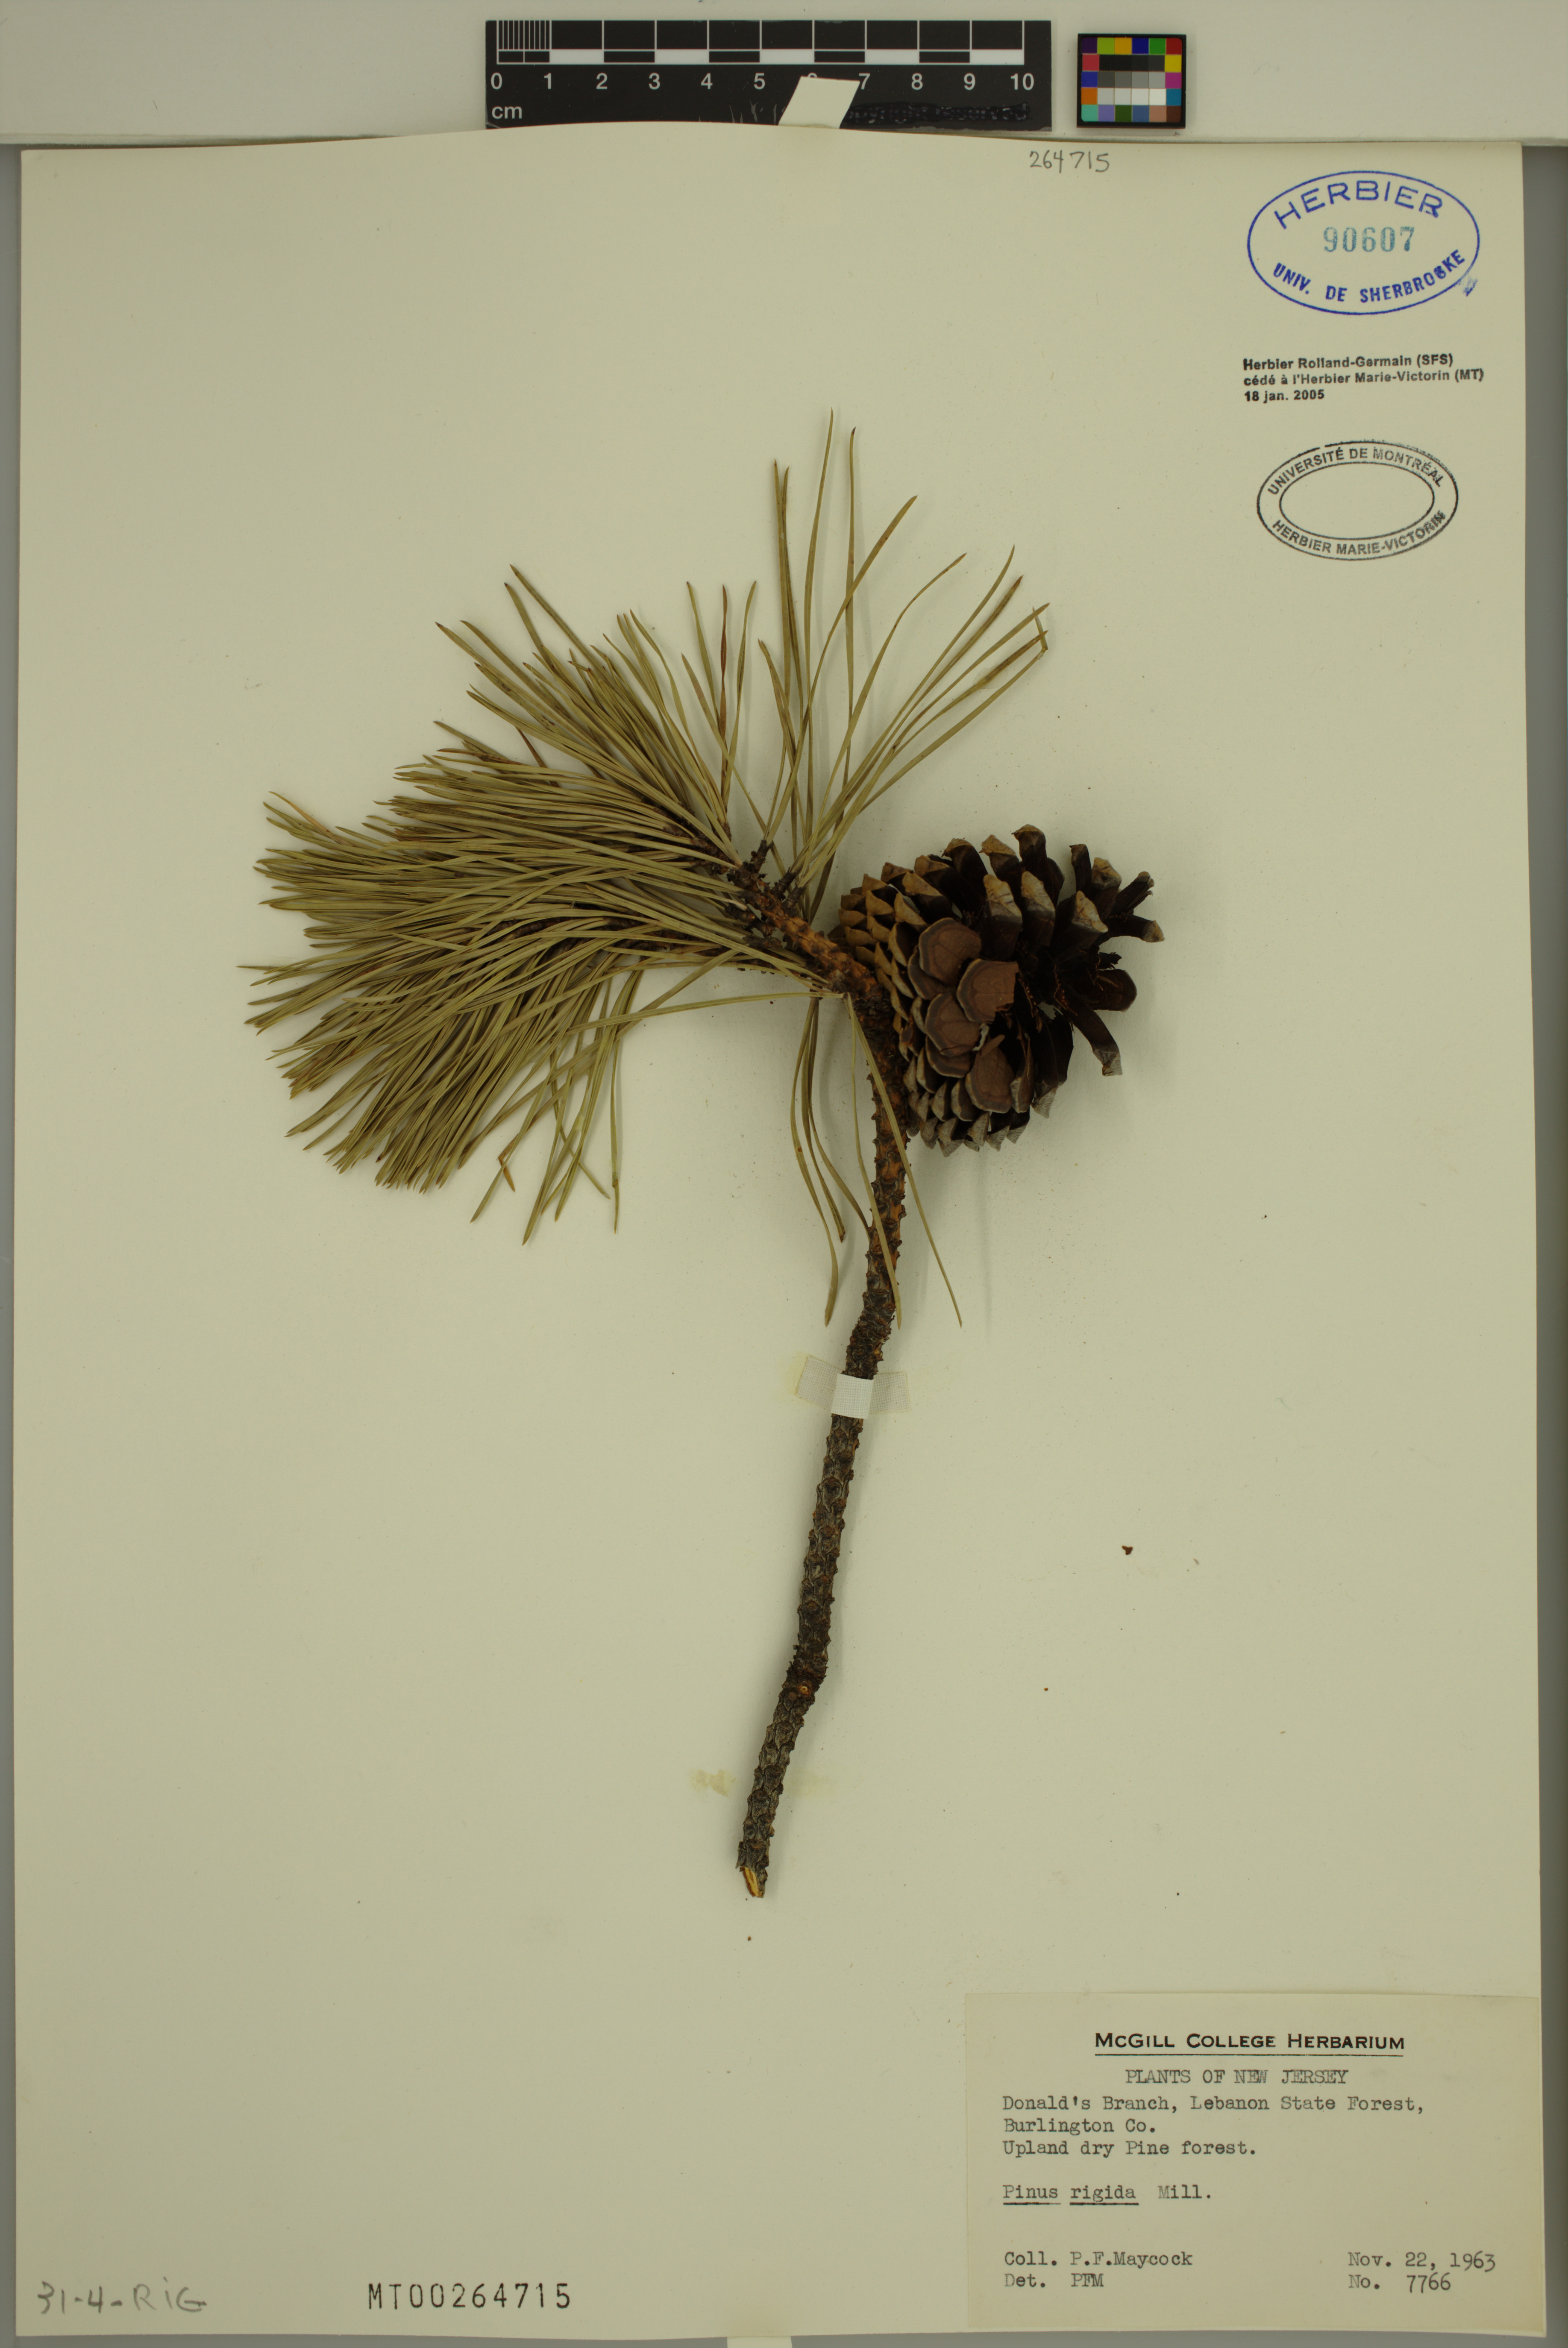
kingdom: Plantae
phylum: Tracheophyta
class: Pinopsida
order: Pinales
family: Pinaceae
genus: Pinus
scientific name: Pinus rigida
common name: Pitch pine
